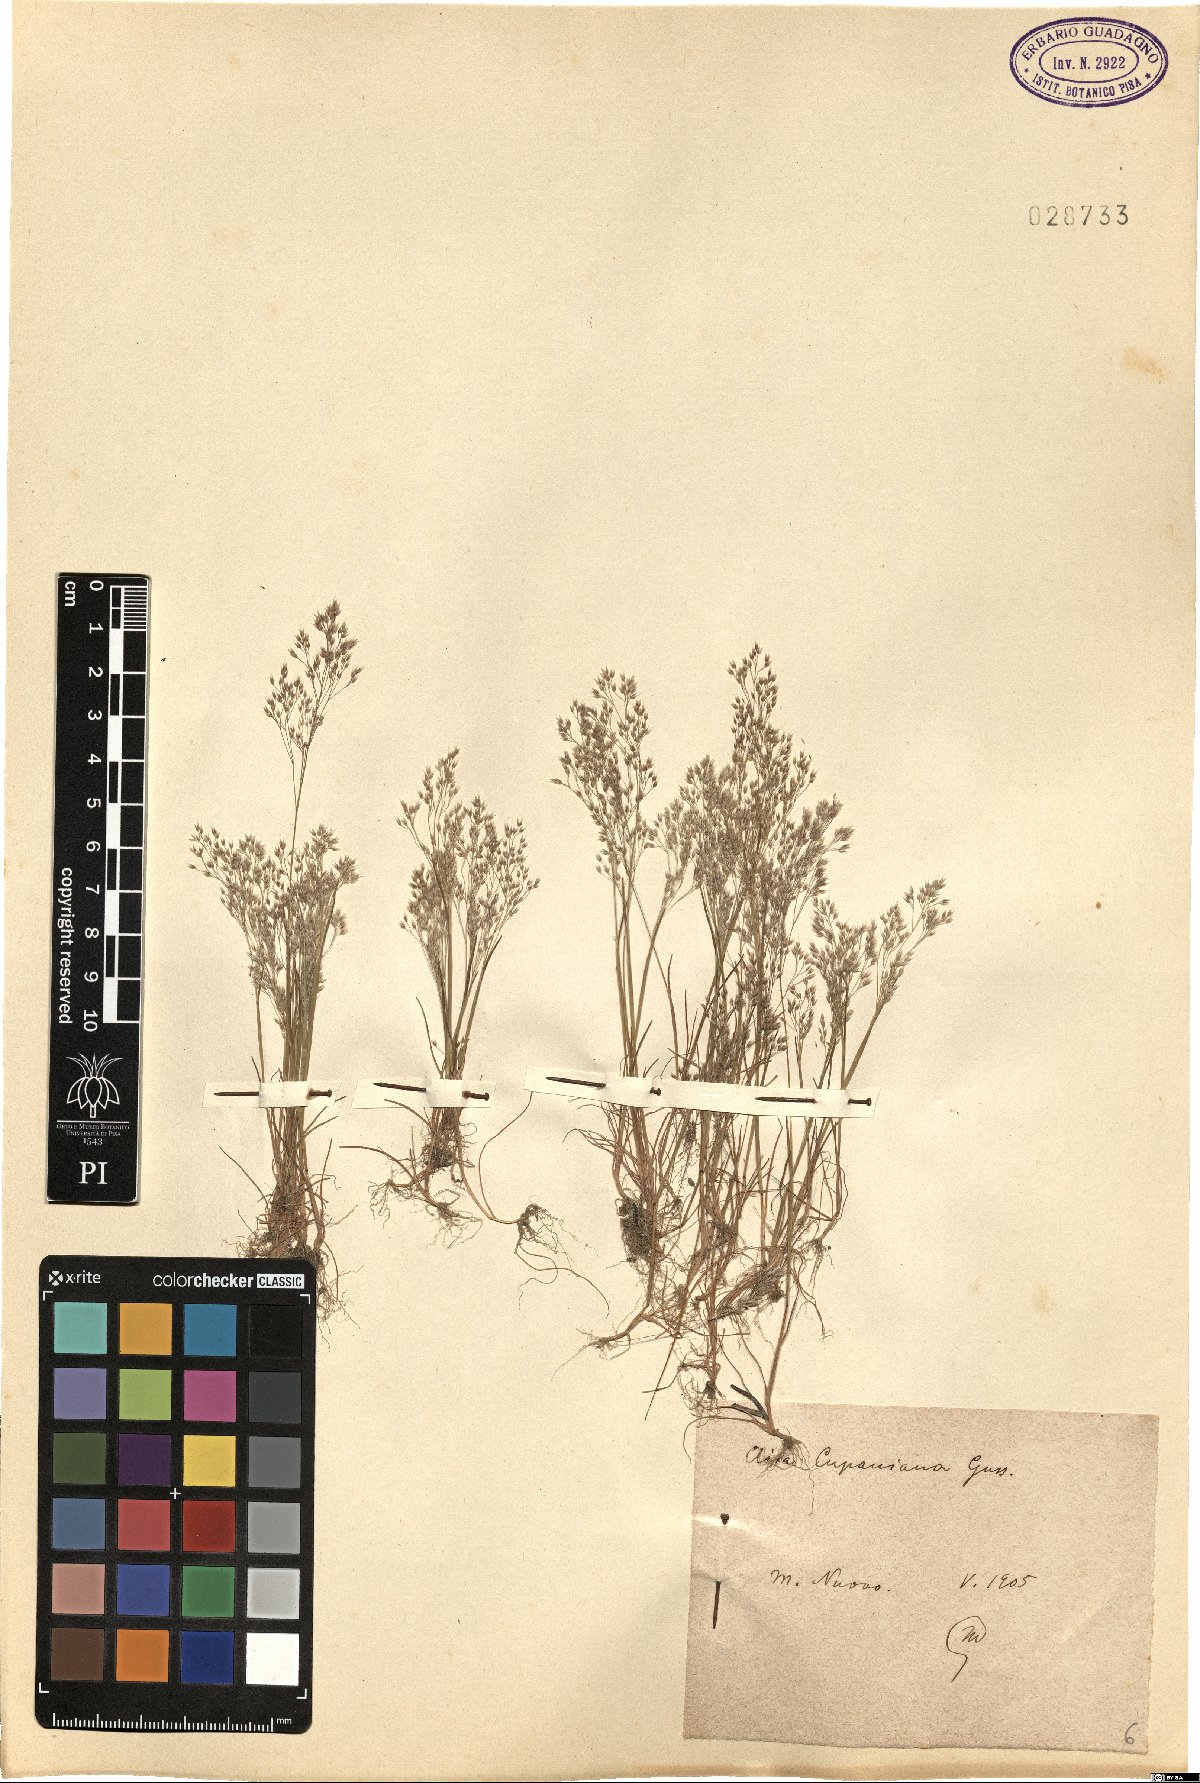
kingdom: Plantae
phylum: Tracheophyta
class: Liliopsida
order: Poales
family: Poaceae
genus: Aira
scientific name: Aira cupaniana
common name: Silver hairgrass
